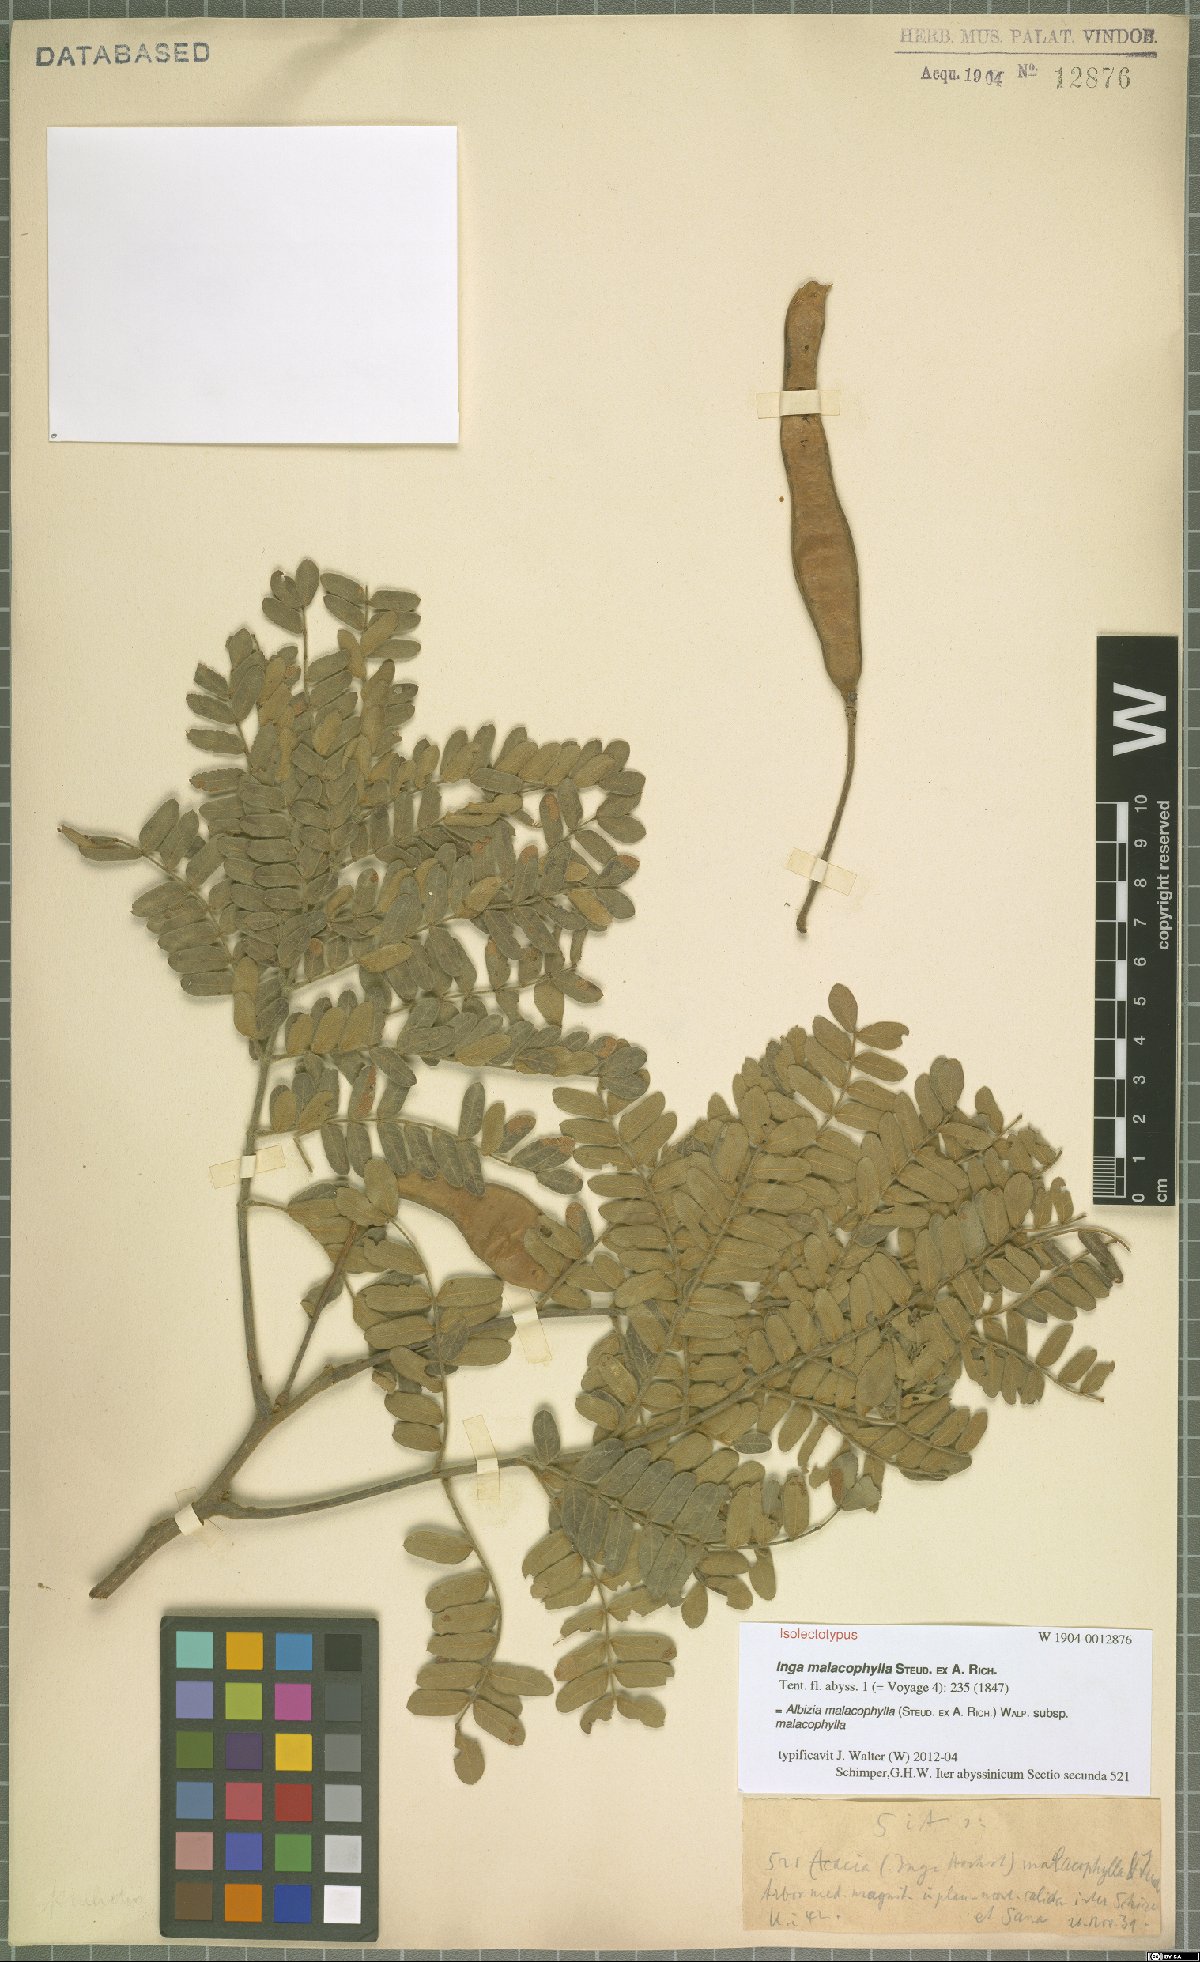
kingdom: Plantae
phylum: Tracheophyta
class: Magnoliopsida
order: Fabales
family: Fabaceae
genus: Albizia
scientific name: Albizia malacophylla
